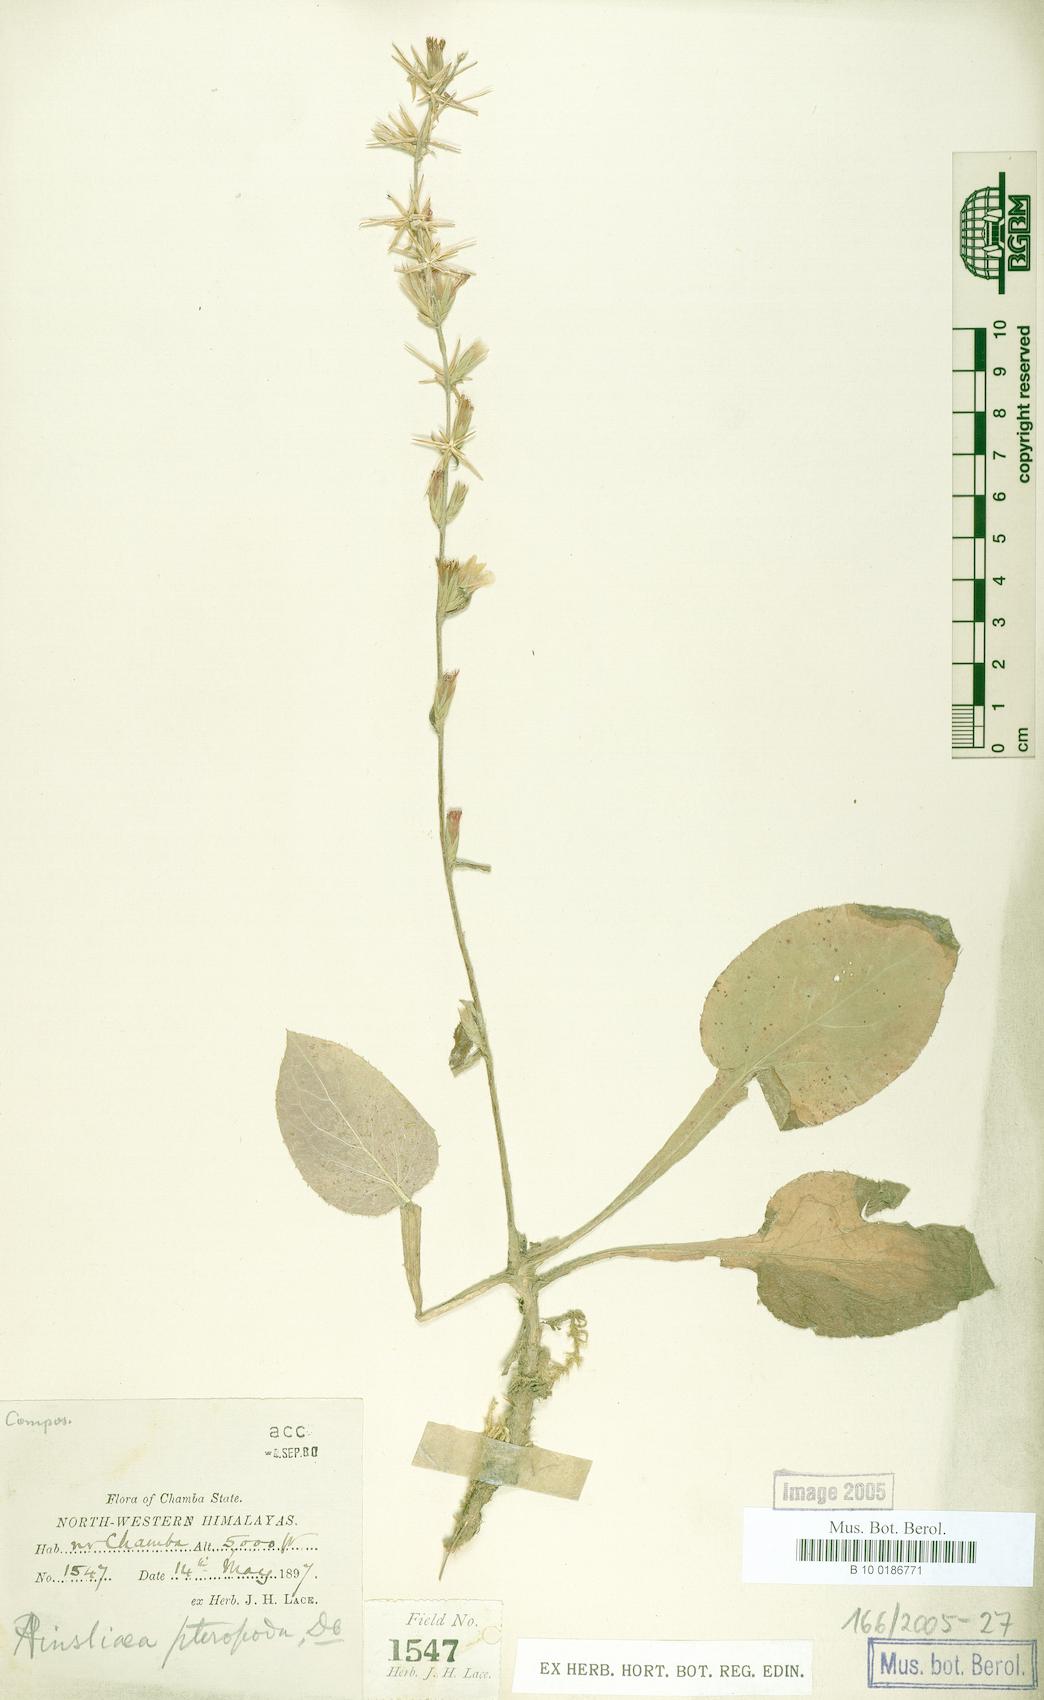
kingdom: Plantae
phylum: Tracheophyta
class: Magnoliopsida
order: Asterales
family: Asteraceae
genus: Ainsliaea
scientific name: Ainsliaea latifolia
